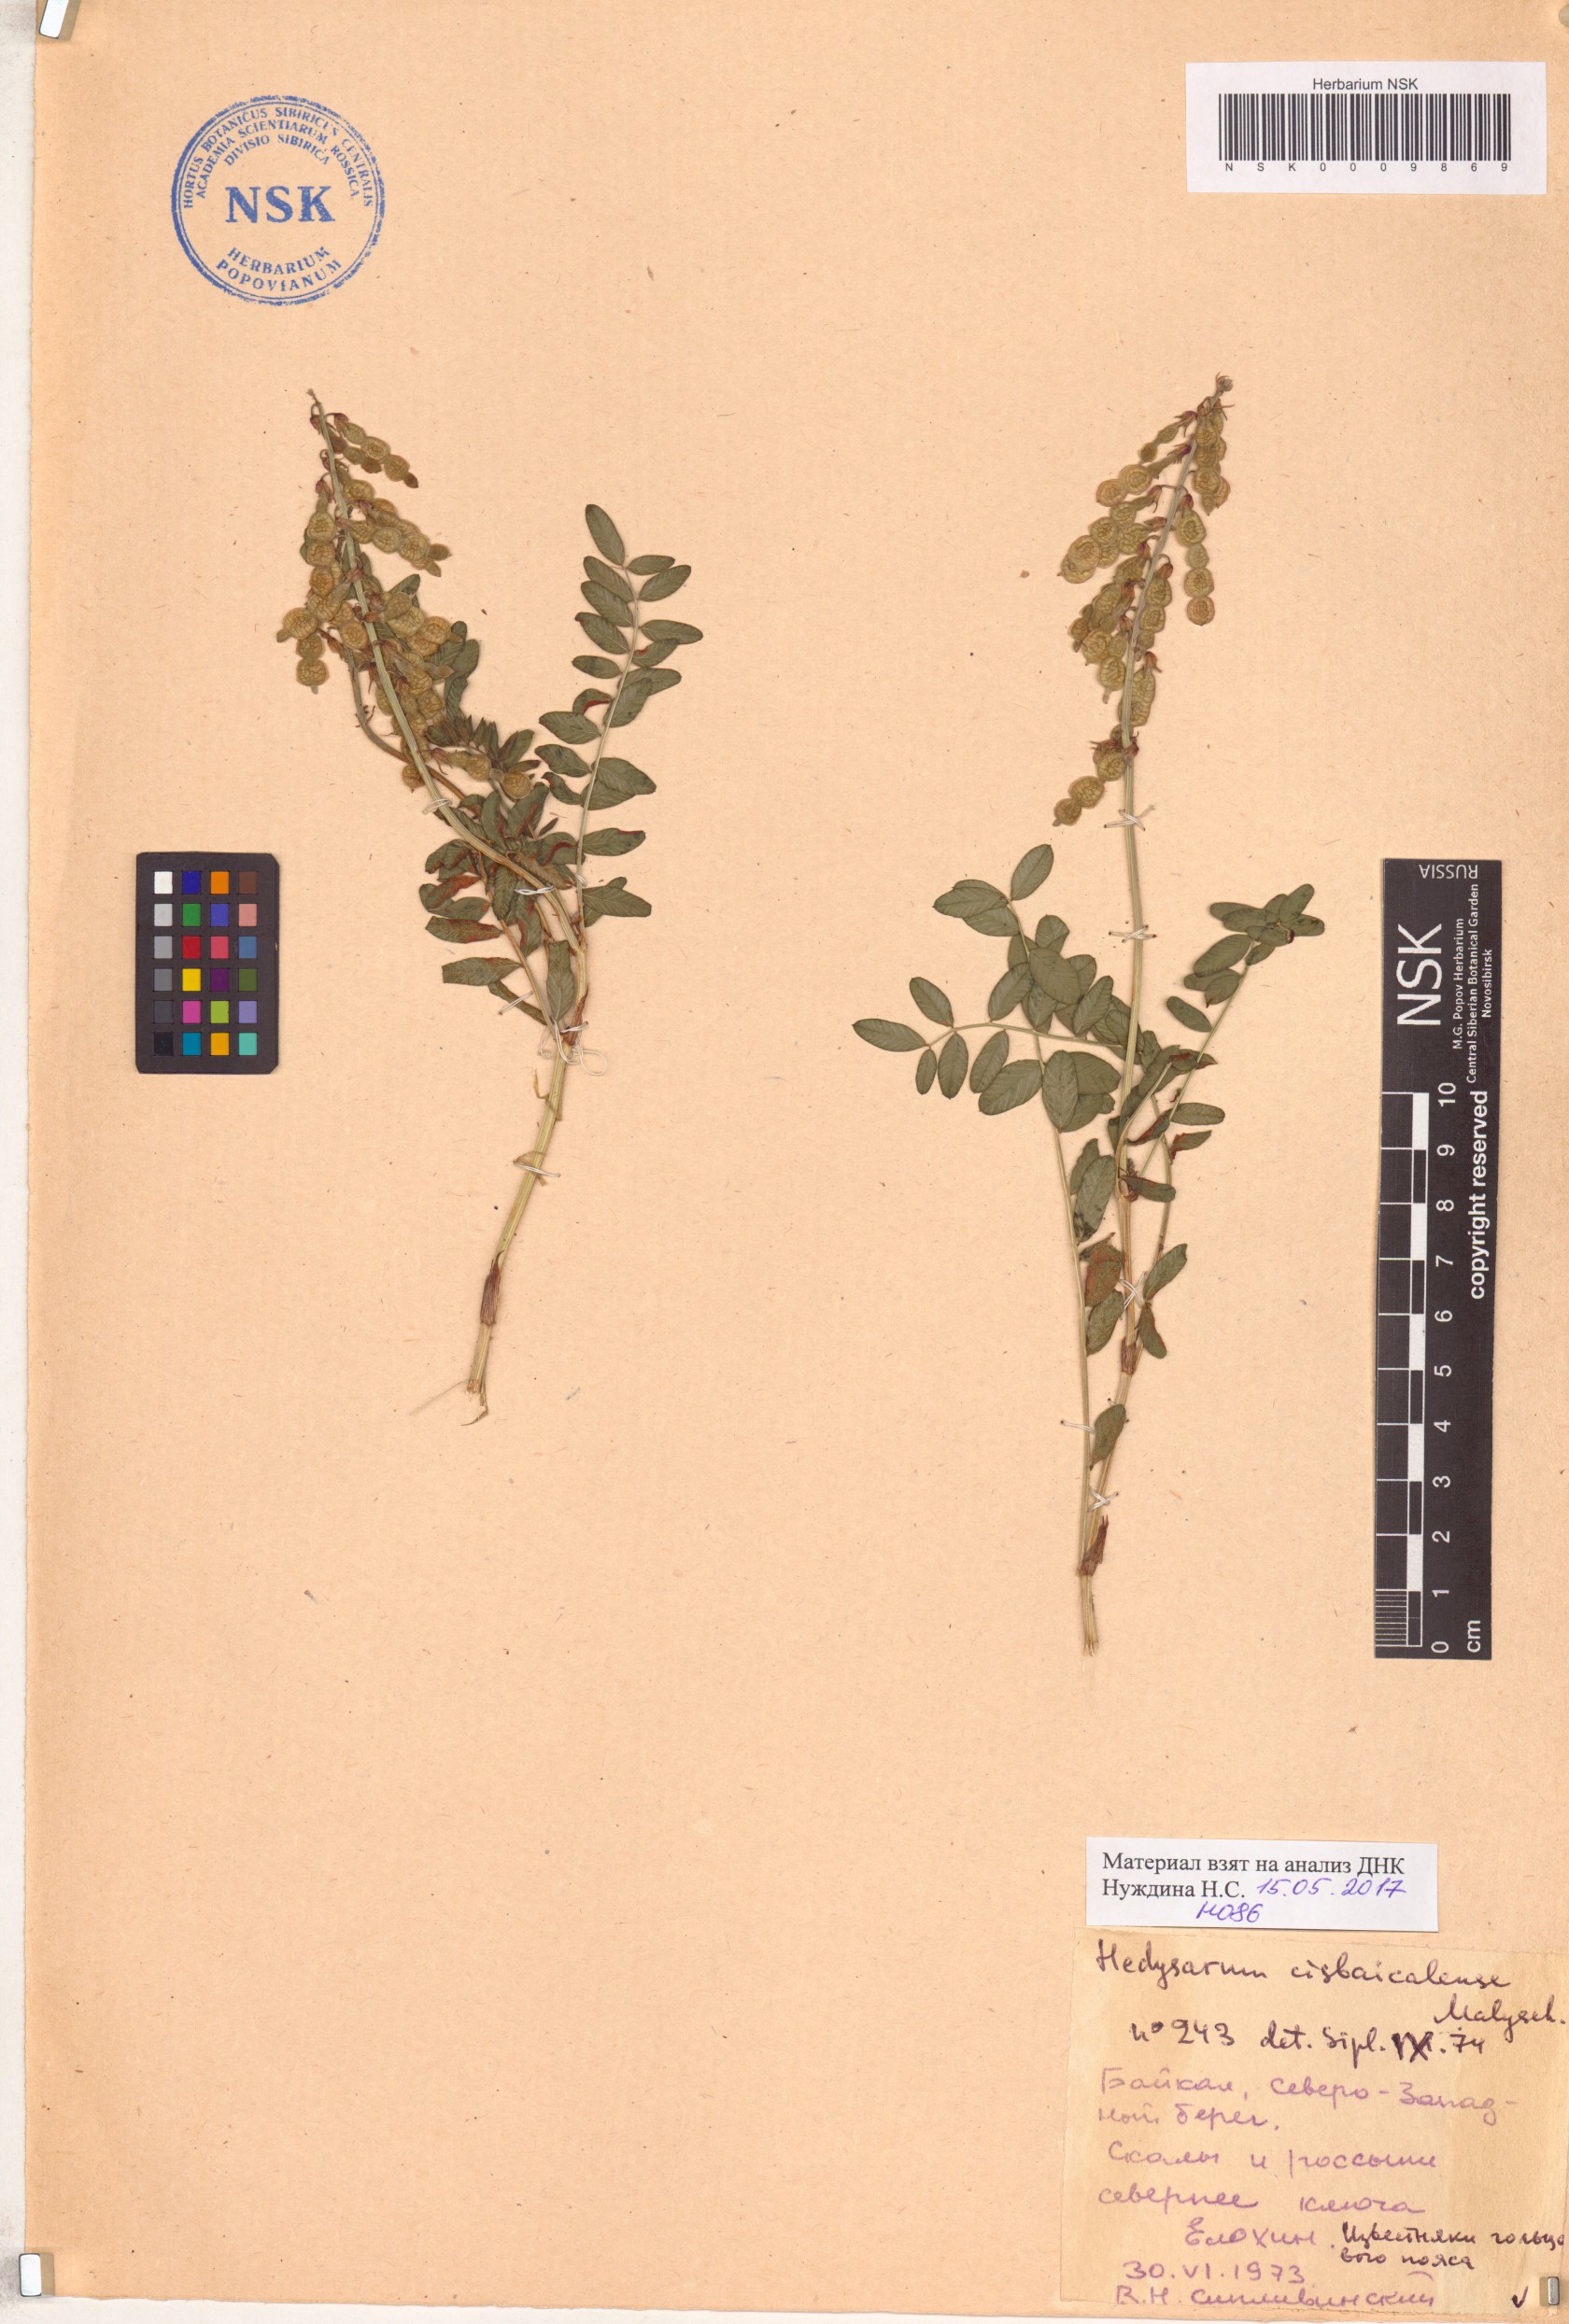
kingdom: Plantae
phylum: Tracheophyta
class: Magnoliopsida
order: Fabales
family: Fabaceae
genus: Hedysarum
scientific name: Hedysarum cisbaicalense
